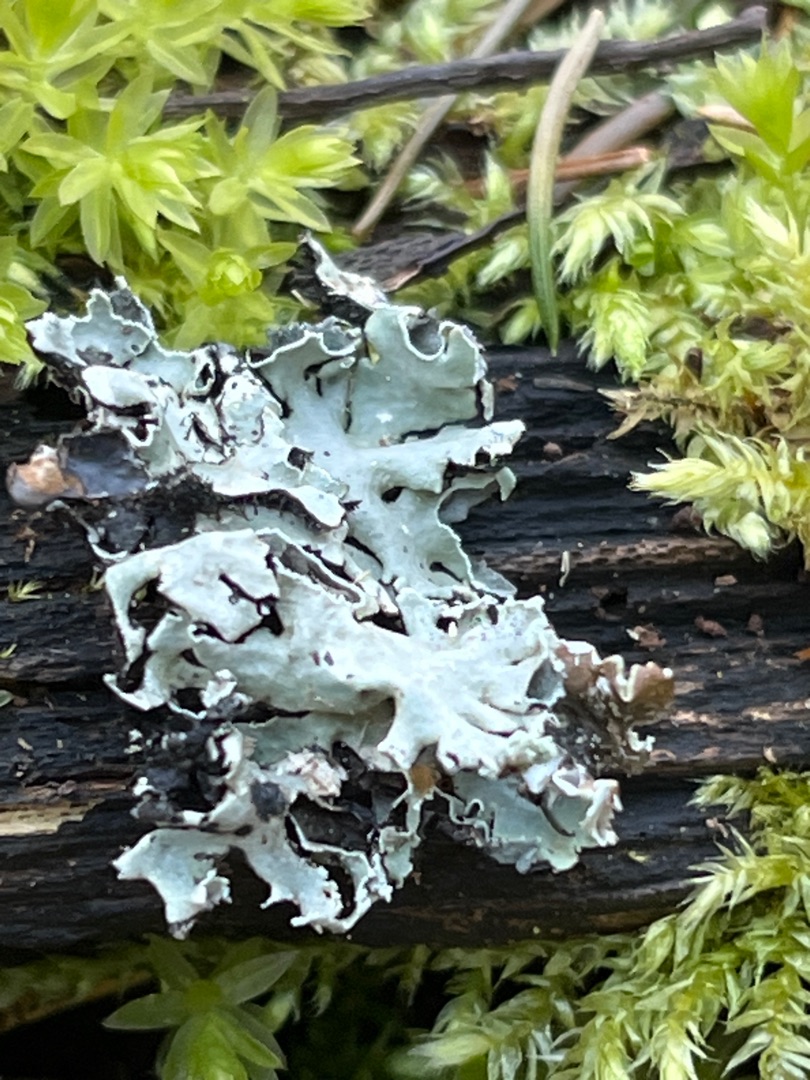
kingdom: Fungi
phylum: Ascomycota
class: Lecanoromycetes
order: Lecanorales
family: Parmeliaceae
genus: Parmelia
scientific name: Parmelia sulcata
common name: Rynket skållav
